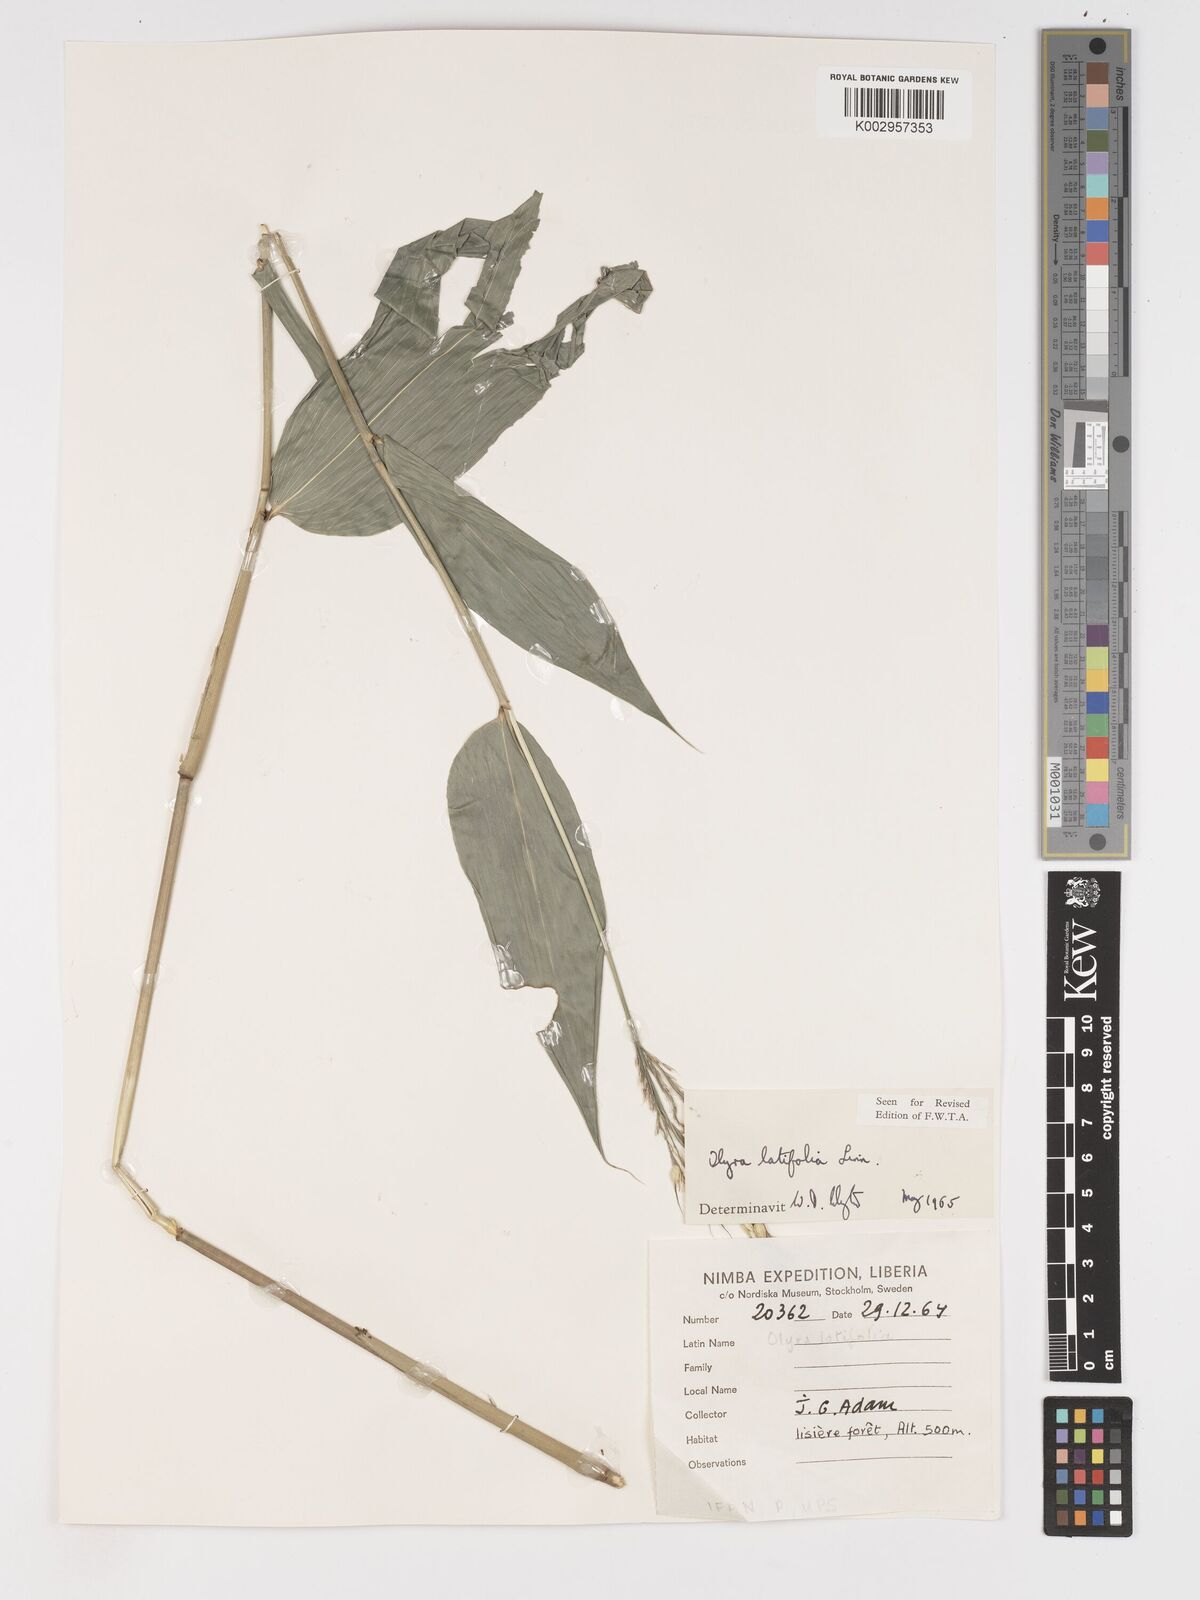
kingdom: Plantae
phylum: Tracheophyta
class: Liliopsida
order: Poales
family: Poaceae
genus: Olyra
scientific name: Olyra latifolia
